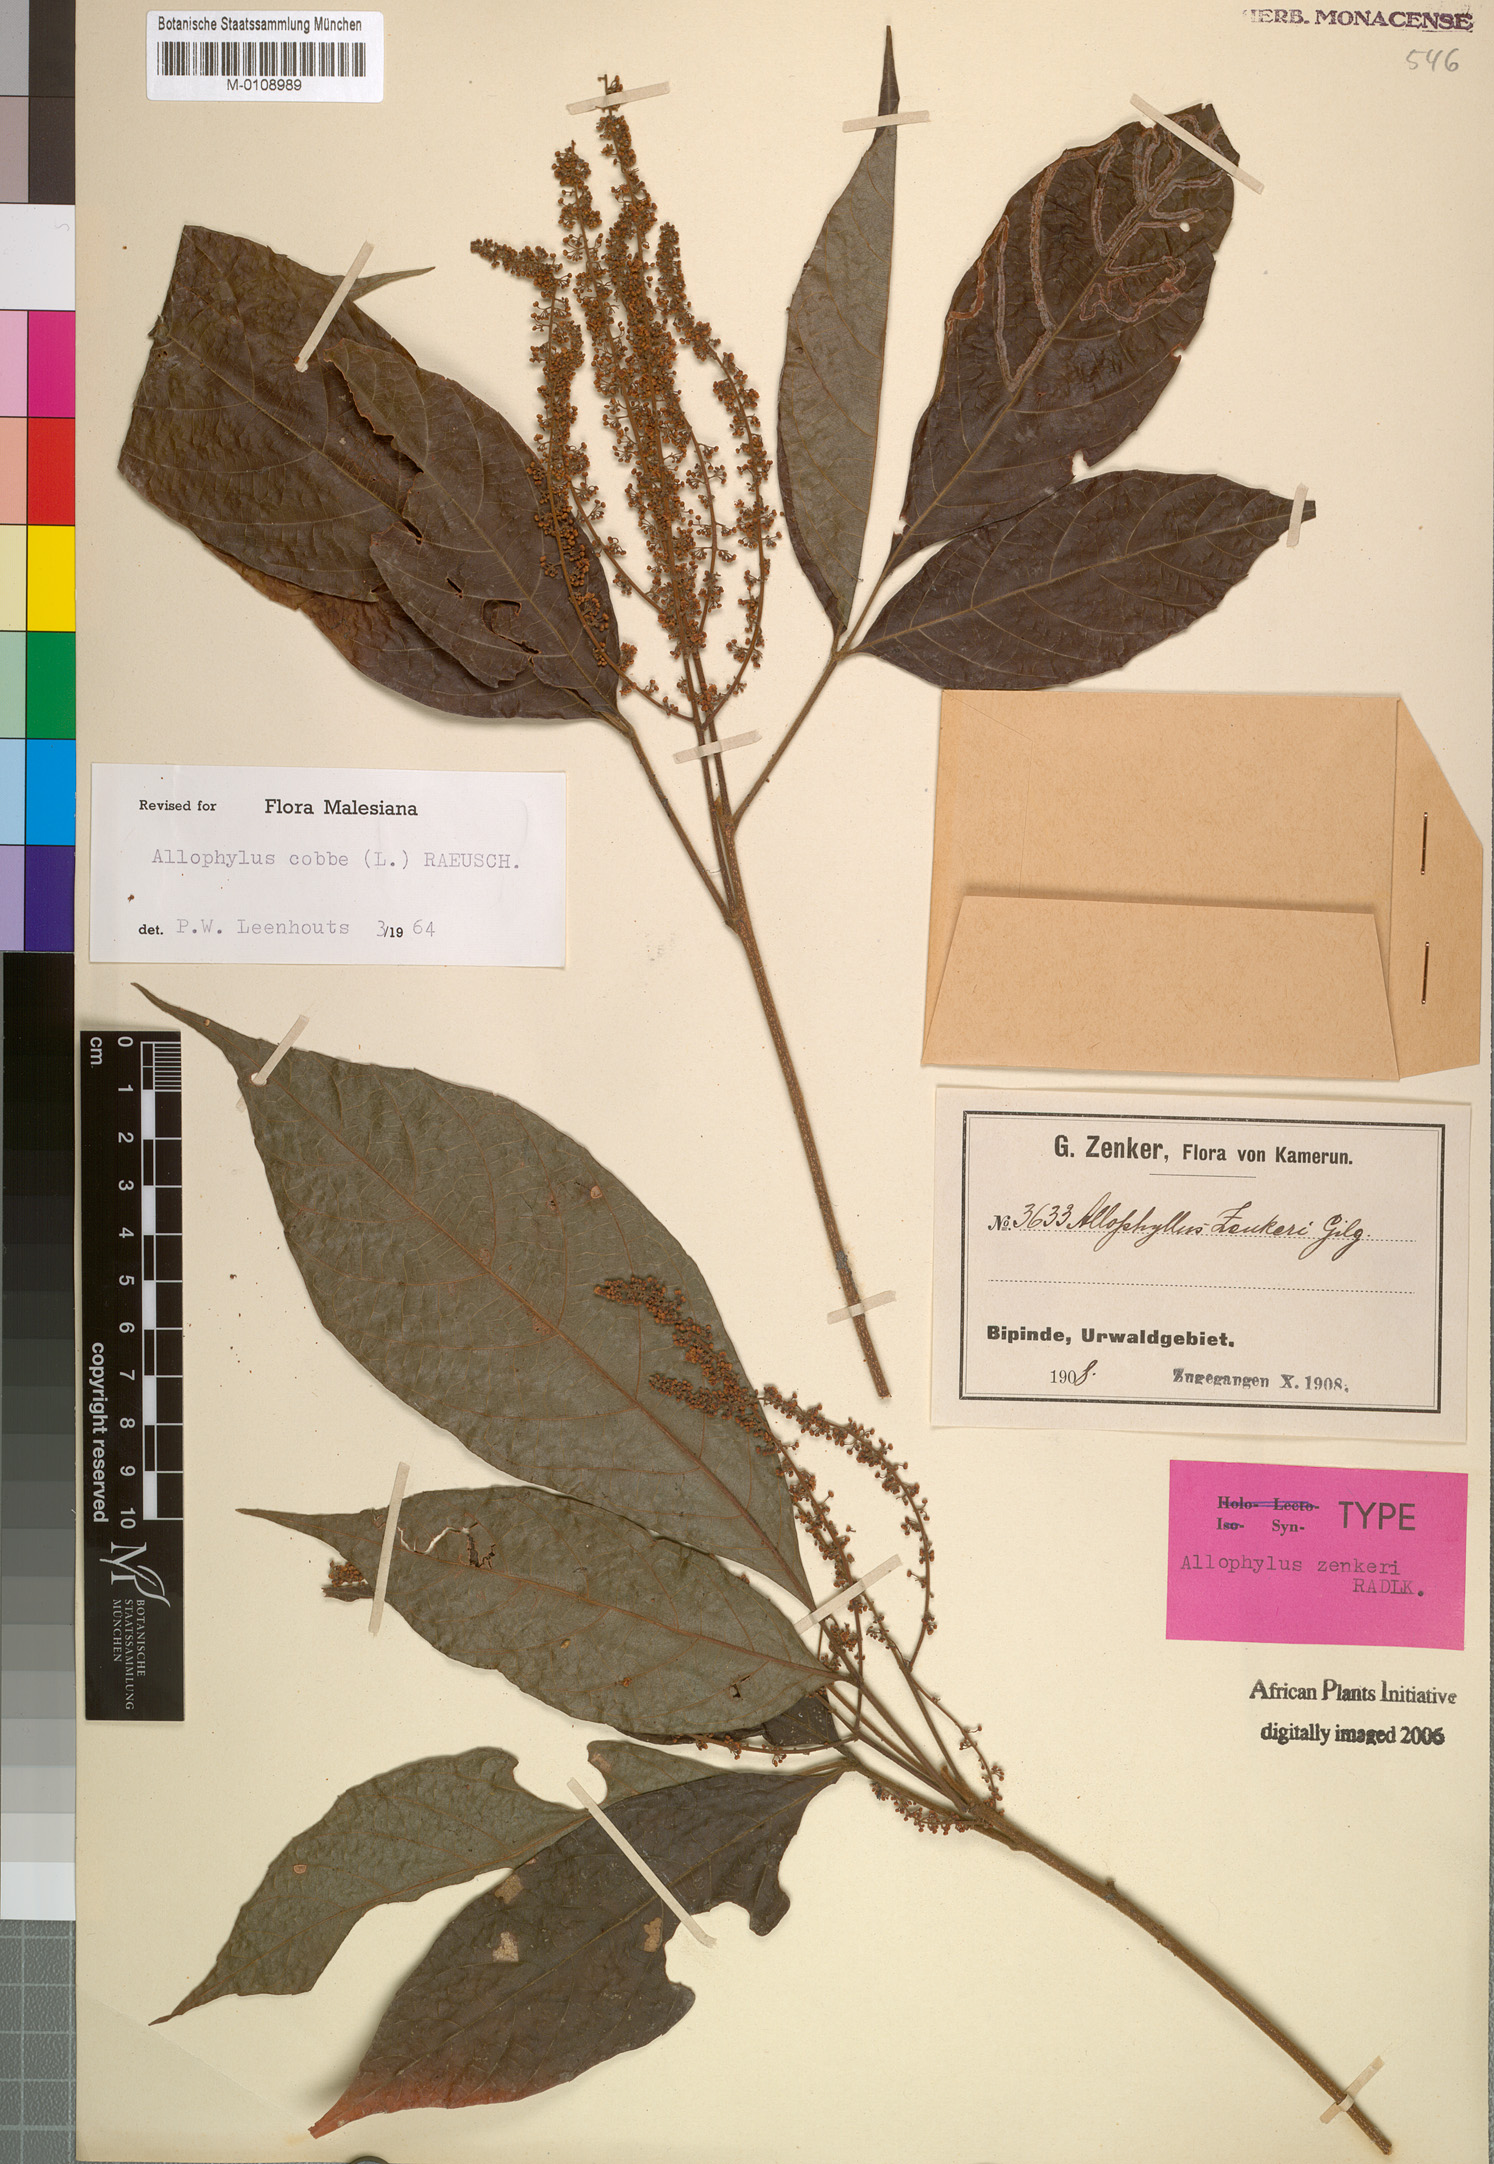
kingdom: Plantae
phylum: Tracheophyta
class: Magnoliopsida
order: Sapindales
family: Sapindaceae
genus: Allophylus
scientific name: Allophylus cobbe
